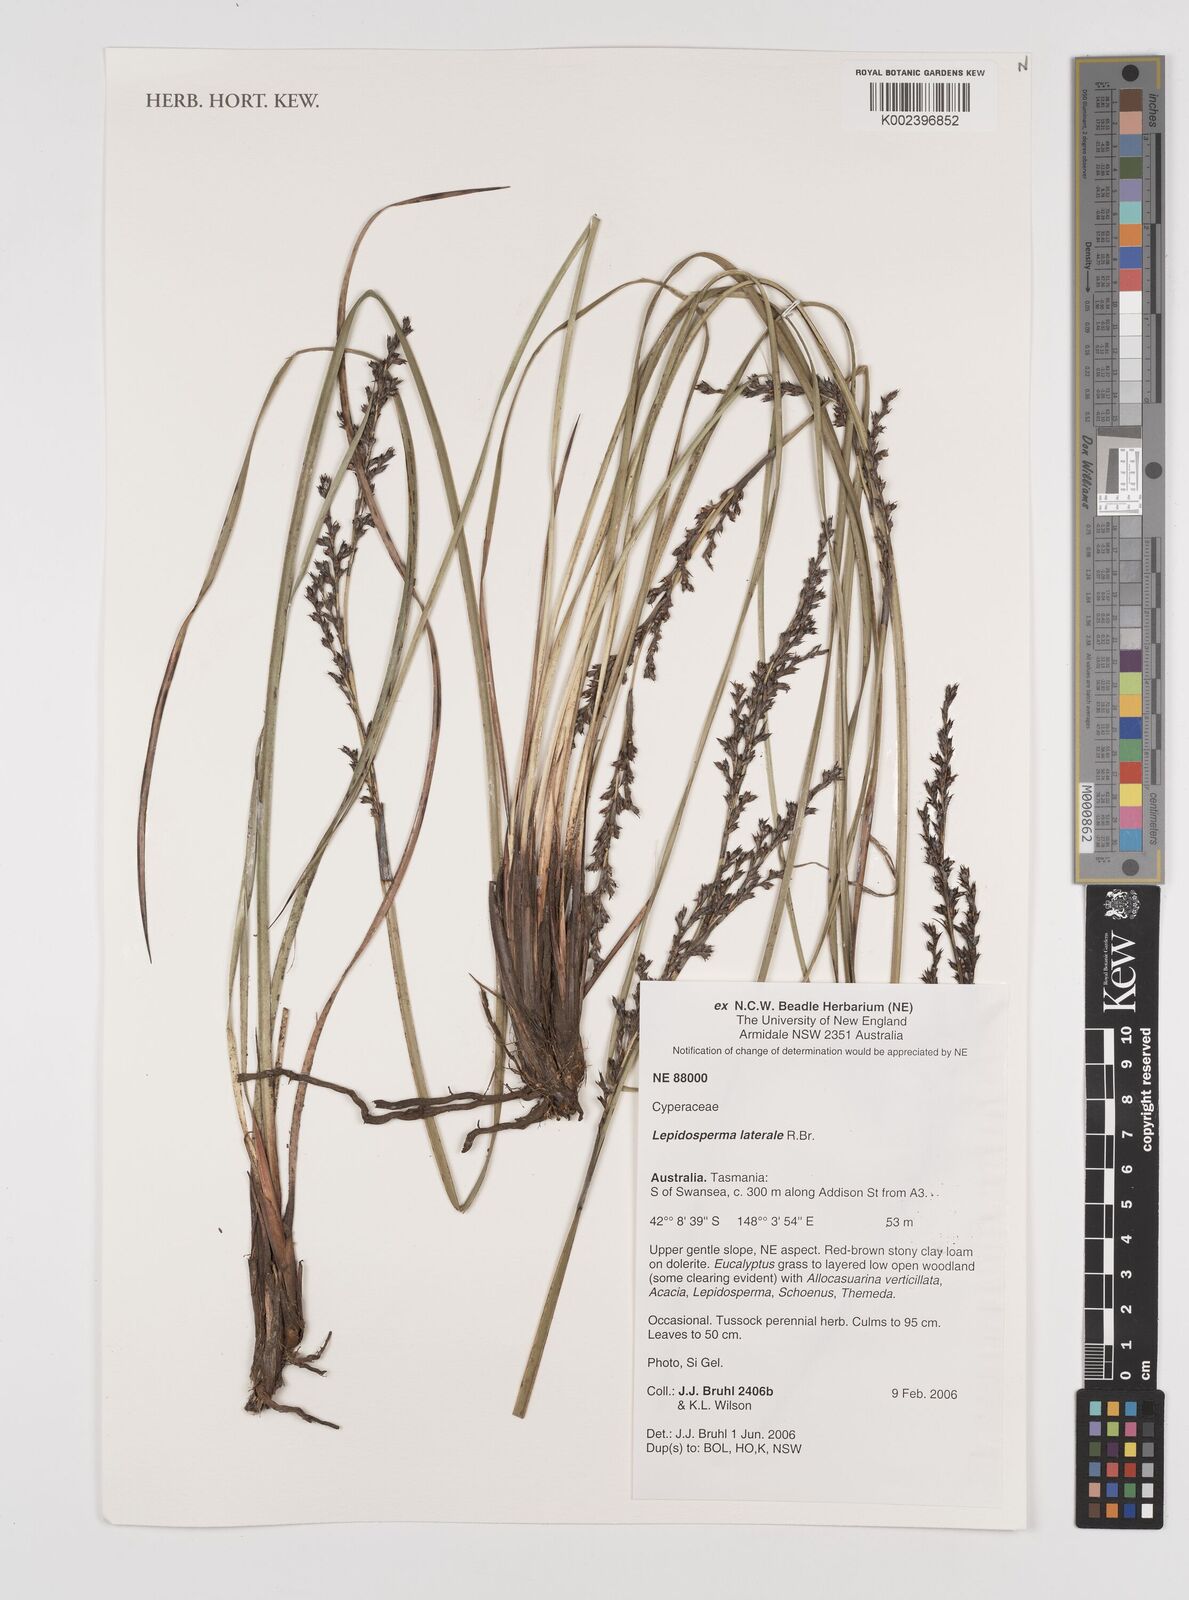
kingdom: Plantae
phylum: Tracheophyta
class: Liliopsida
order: Poales
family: Cyperaceae
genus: Lepidosperma
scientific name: Lepidosperma laterale
